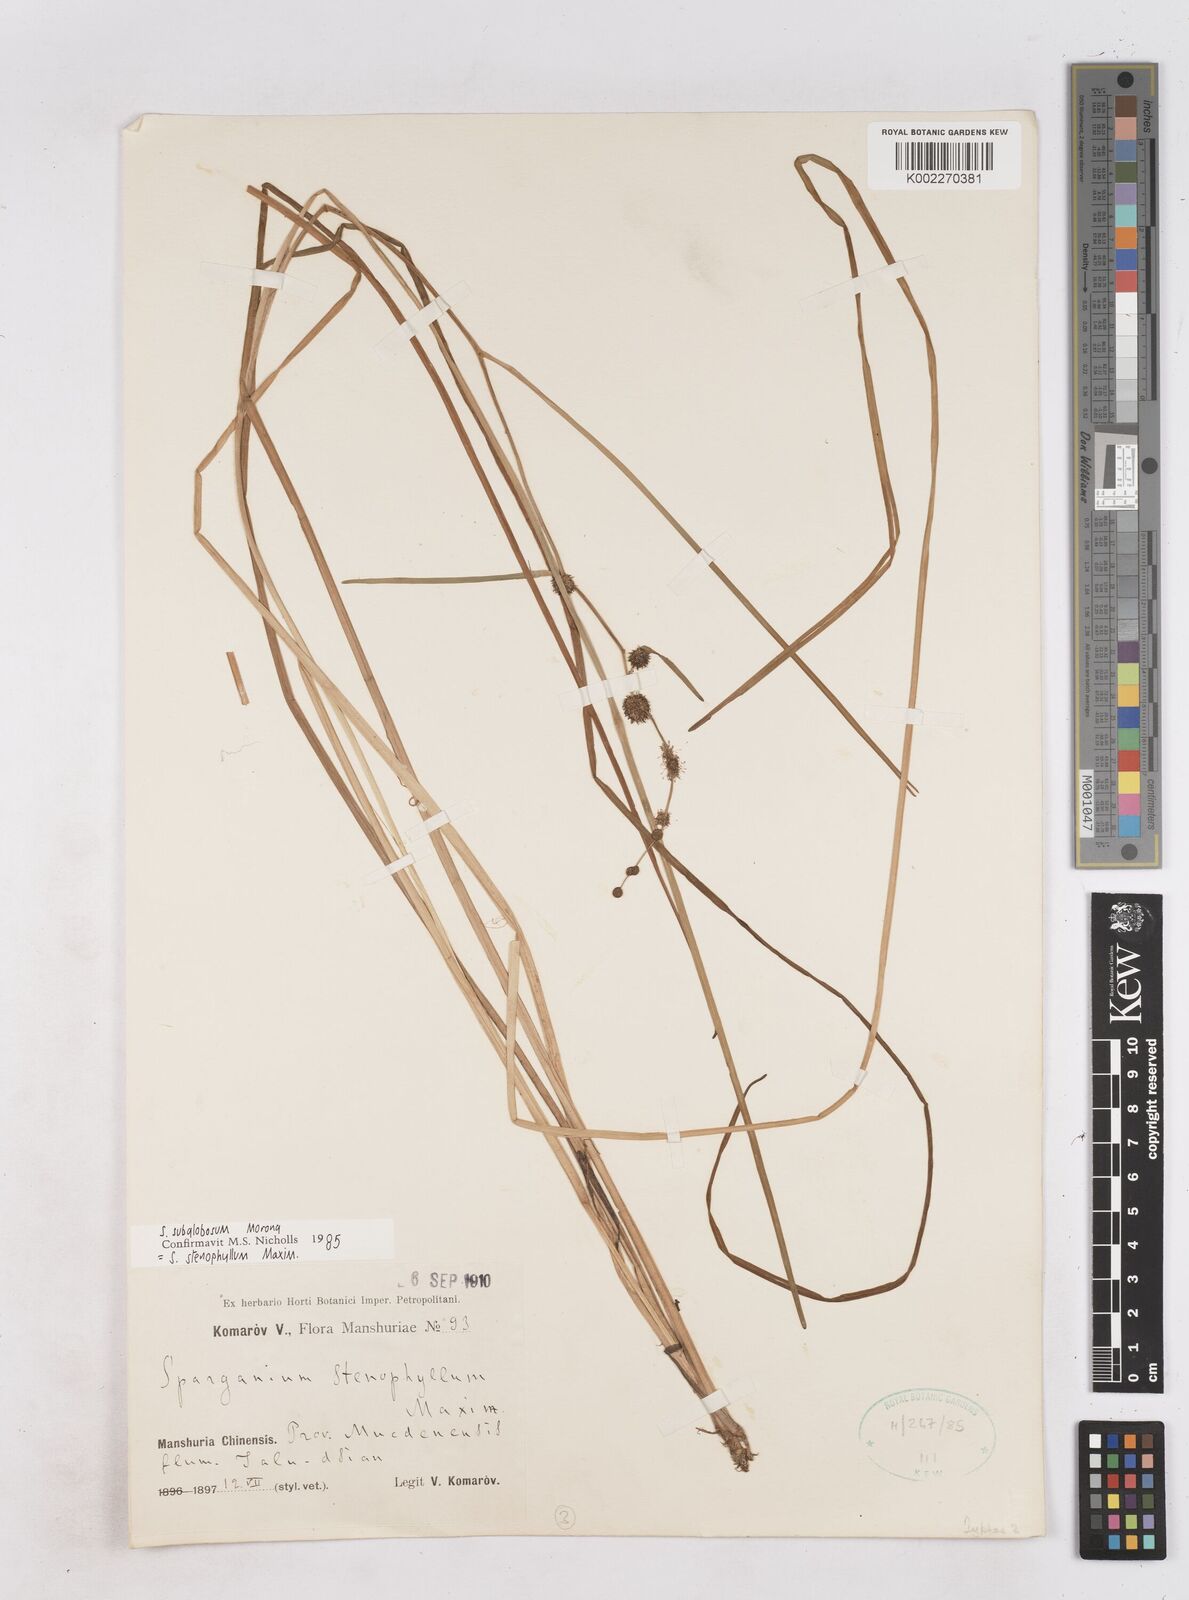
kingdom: Plantae
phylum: Tracheophyta
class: Liliopsida
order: Poales
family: Typhaceae
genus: Sparganium
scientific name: Sparganium subglobosum
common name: Burr­-reed
